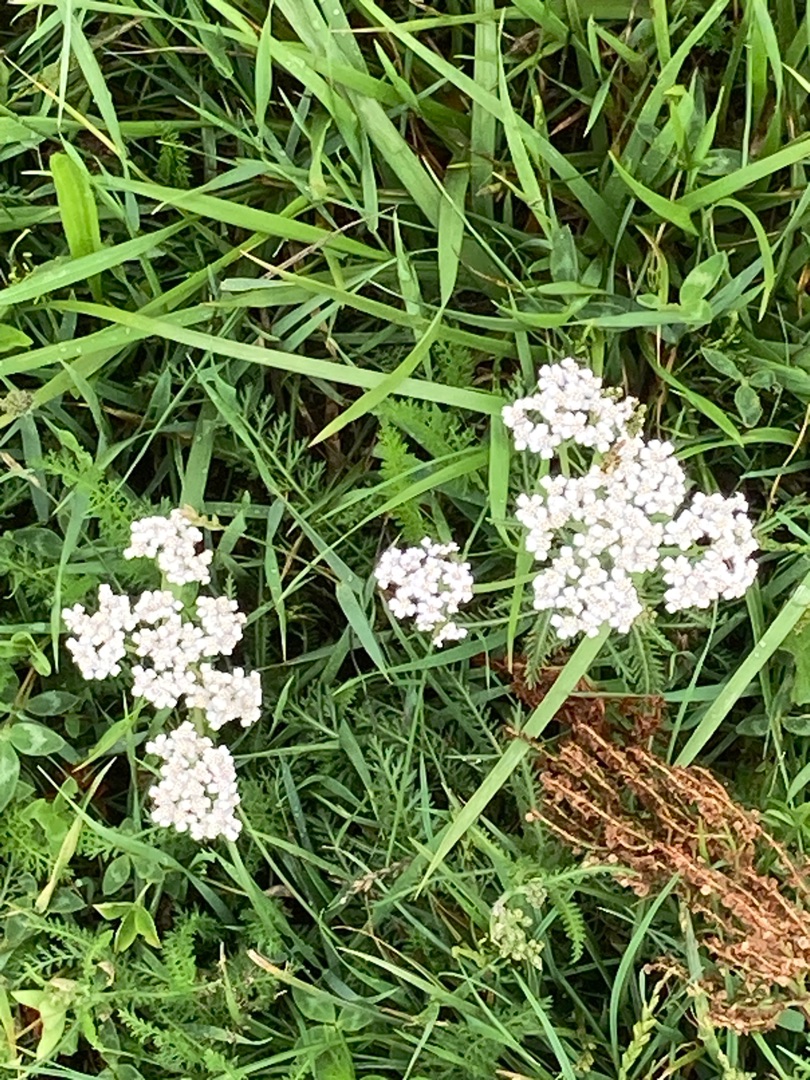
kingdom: Plantae
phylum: Tracheophyta
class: Magnoliopsida
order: Asterales
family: Asteraceae
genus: Achillea
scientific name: Achillea millefolium
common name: Almindelig røllike
